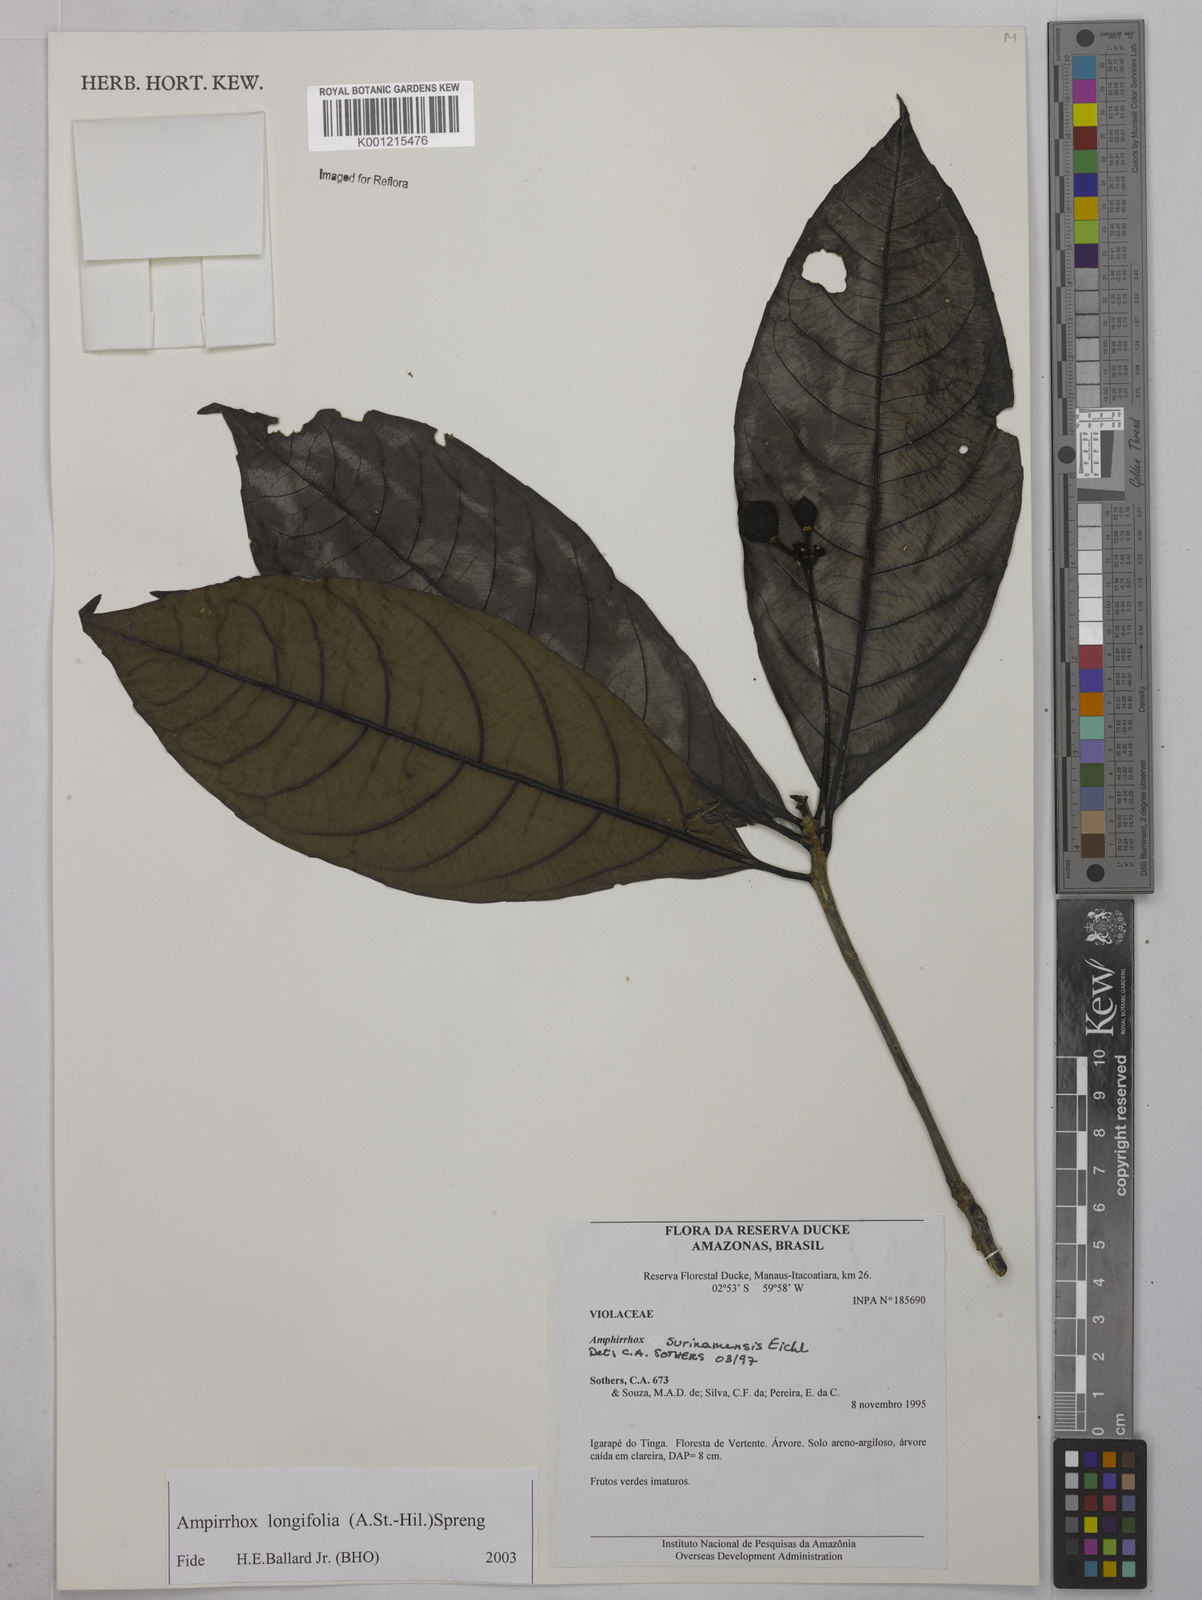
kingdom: Plantae
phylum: Tracheophyta
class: Magnoliopsida
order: Malpighiales
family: Violaceae
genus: Amphirrhox
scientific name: Amphirrhox longifolia
